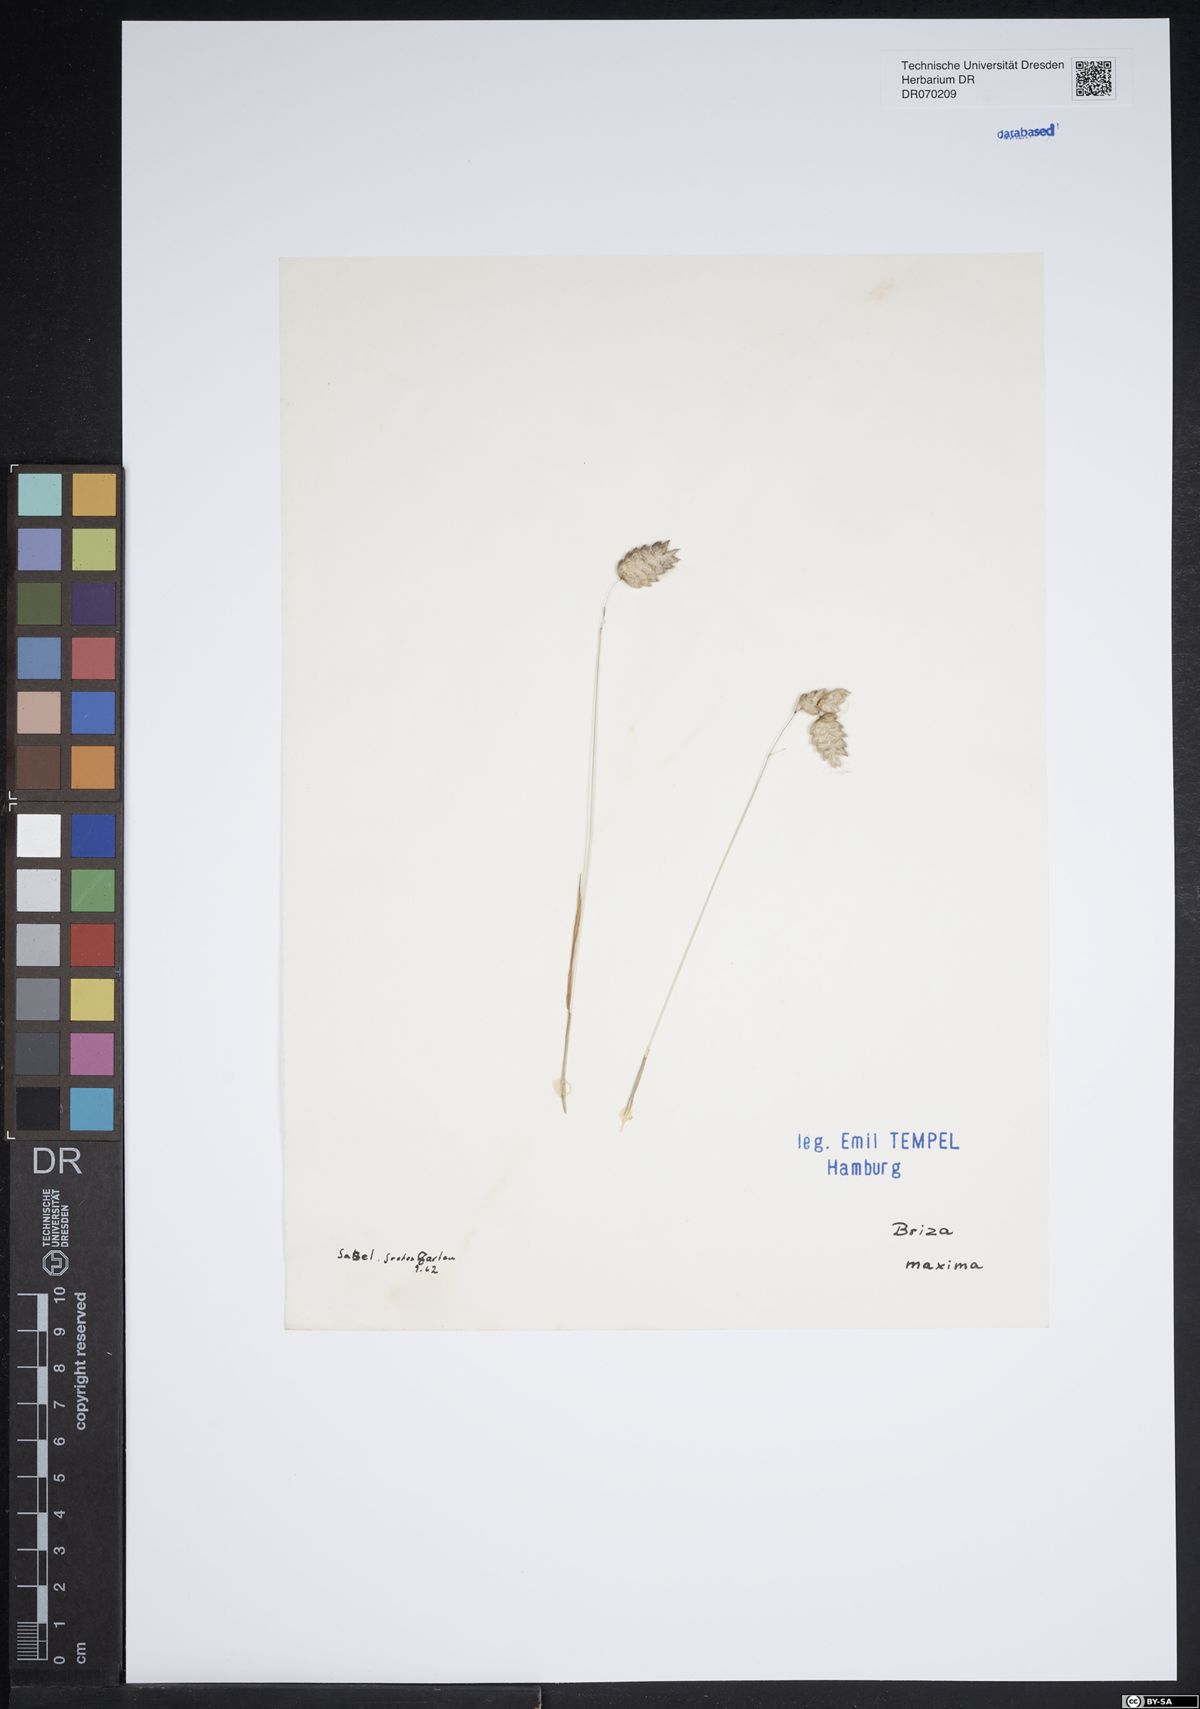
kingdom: Plantae
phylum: Tracheophyta
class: Liliopsida
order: Poales
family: Poaceae
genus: Briza
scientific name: Briza maxima
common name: Big quakinggrass
